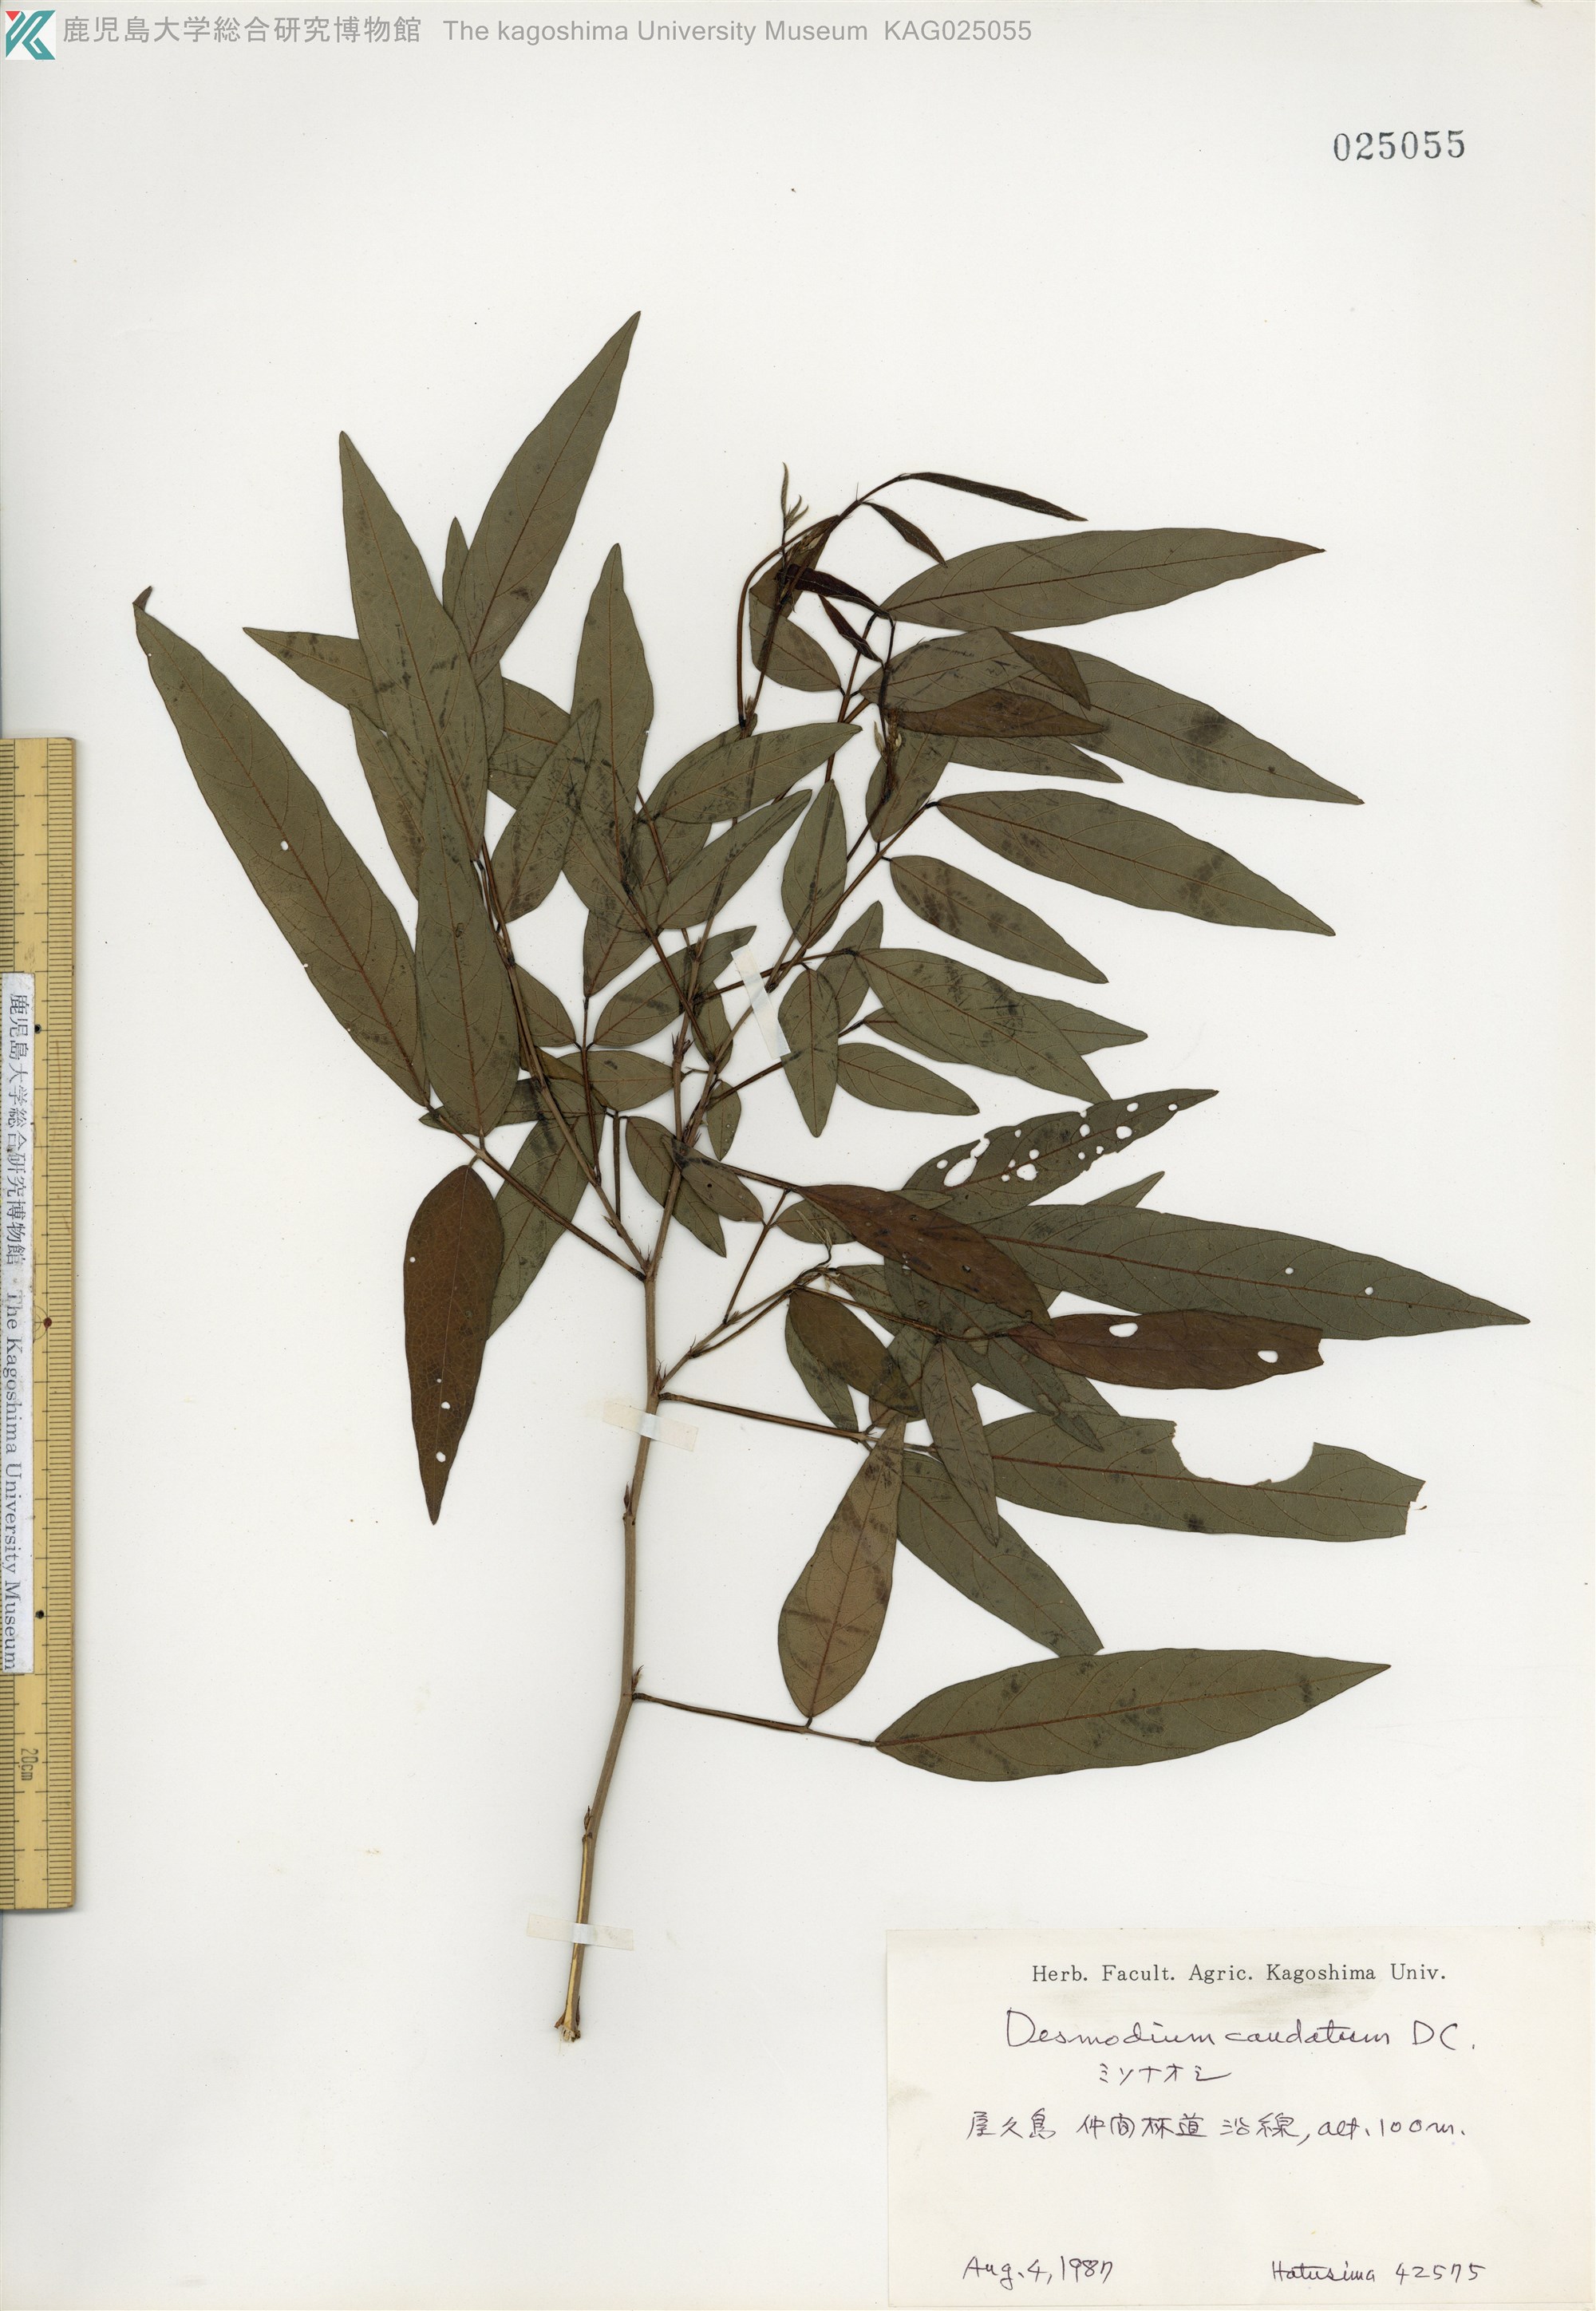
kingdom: Plantae
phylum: Tracheophyta
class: Magnoliopsida
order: Fabales
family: Fabaceae
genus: Ohwia
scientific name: Ohwia caudata
